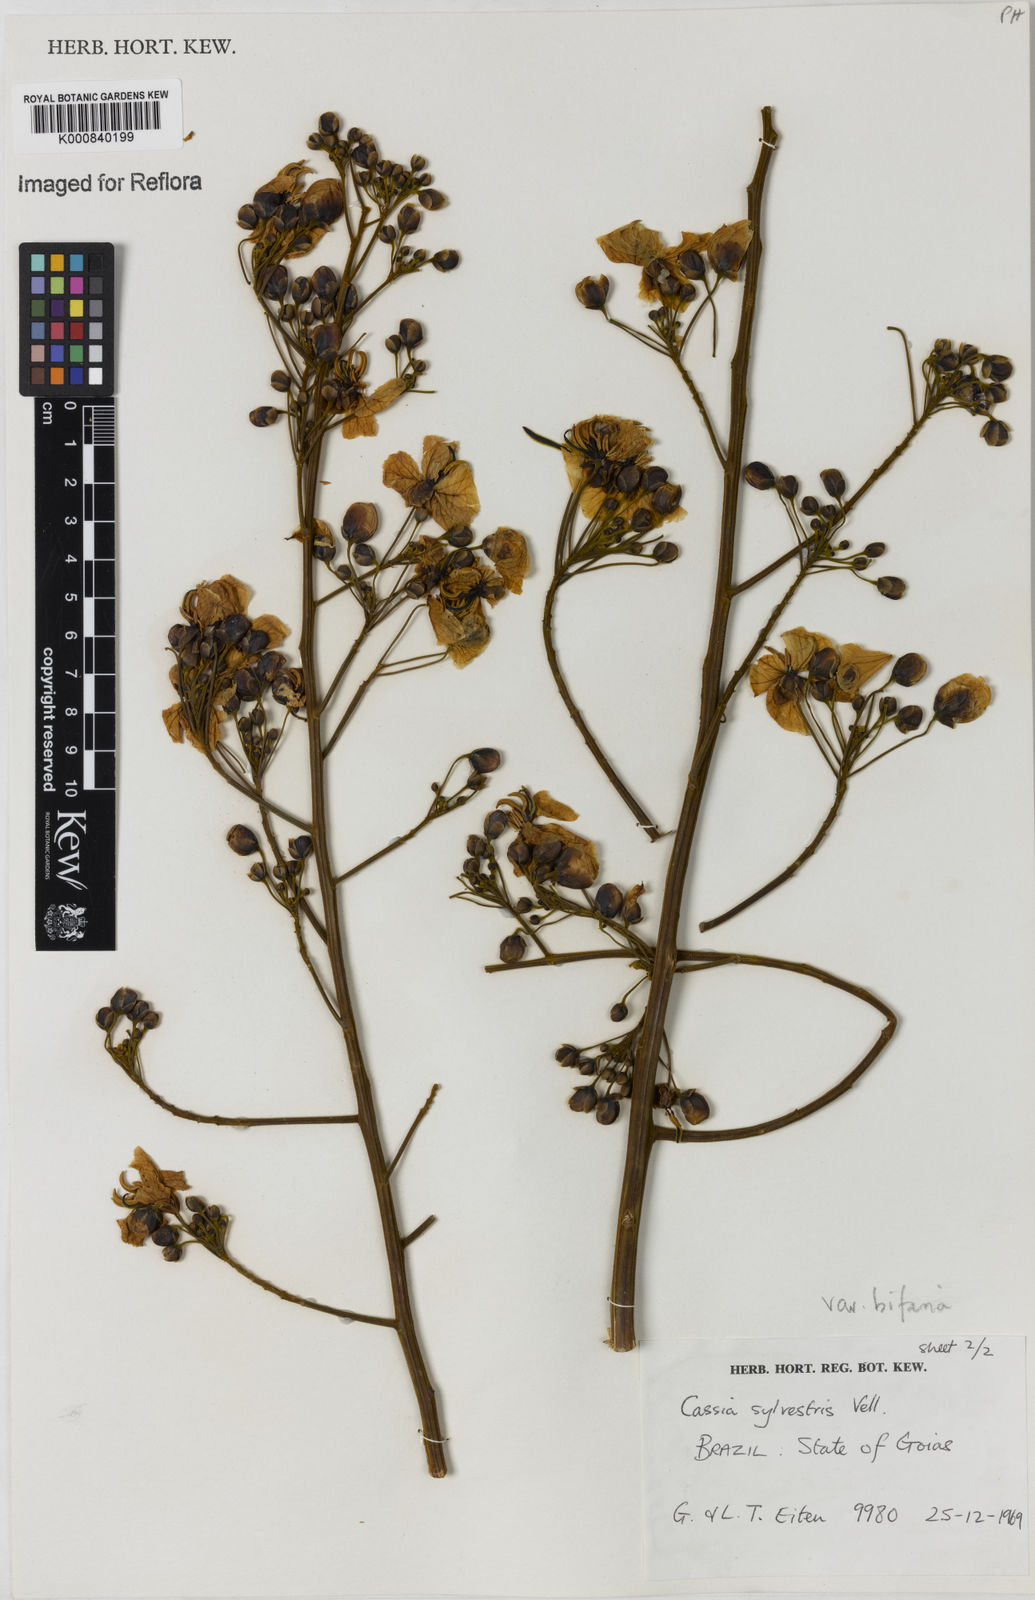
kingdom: Plantae
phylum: Tracheophyta
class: Magnoliopsida
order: Fabales
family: Fabaceae
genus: Senna
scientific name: Senna silvestris
